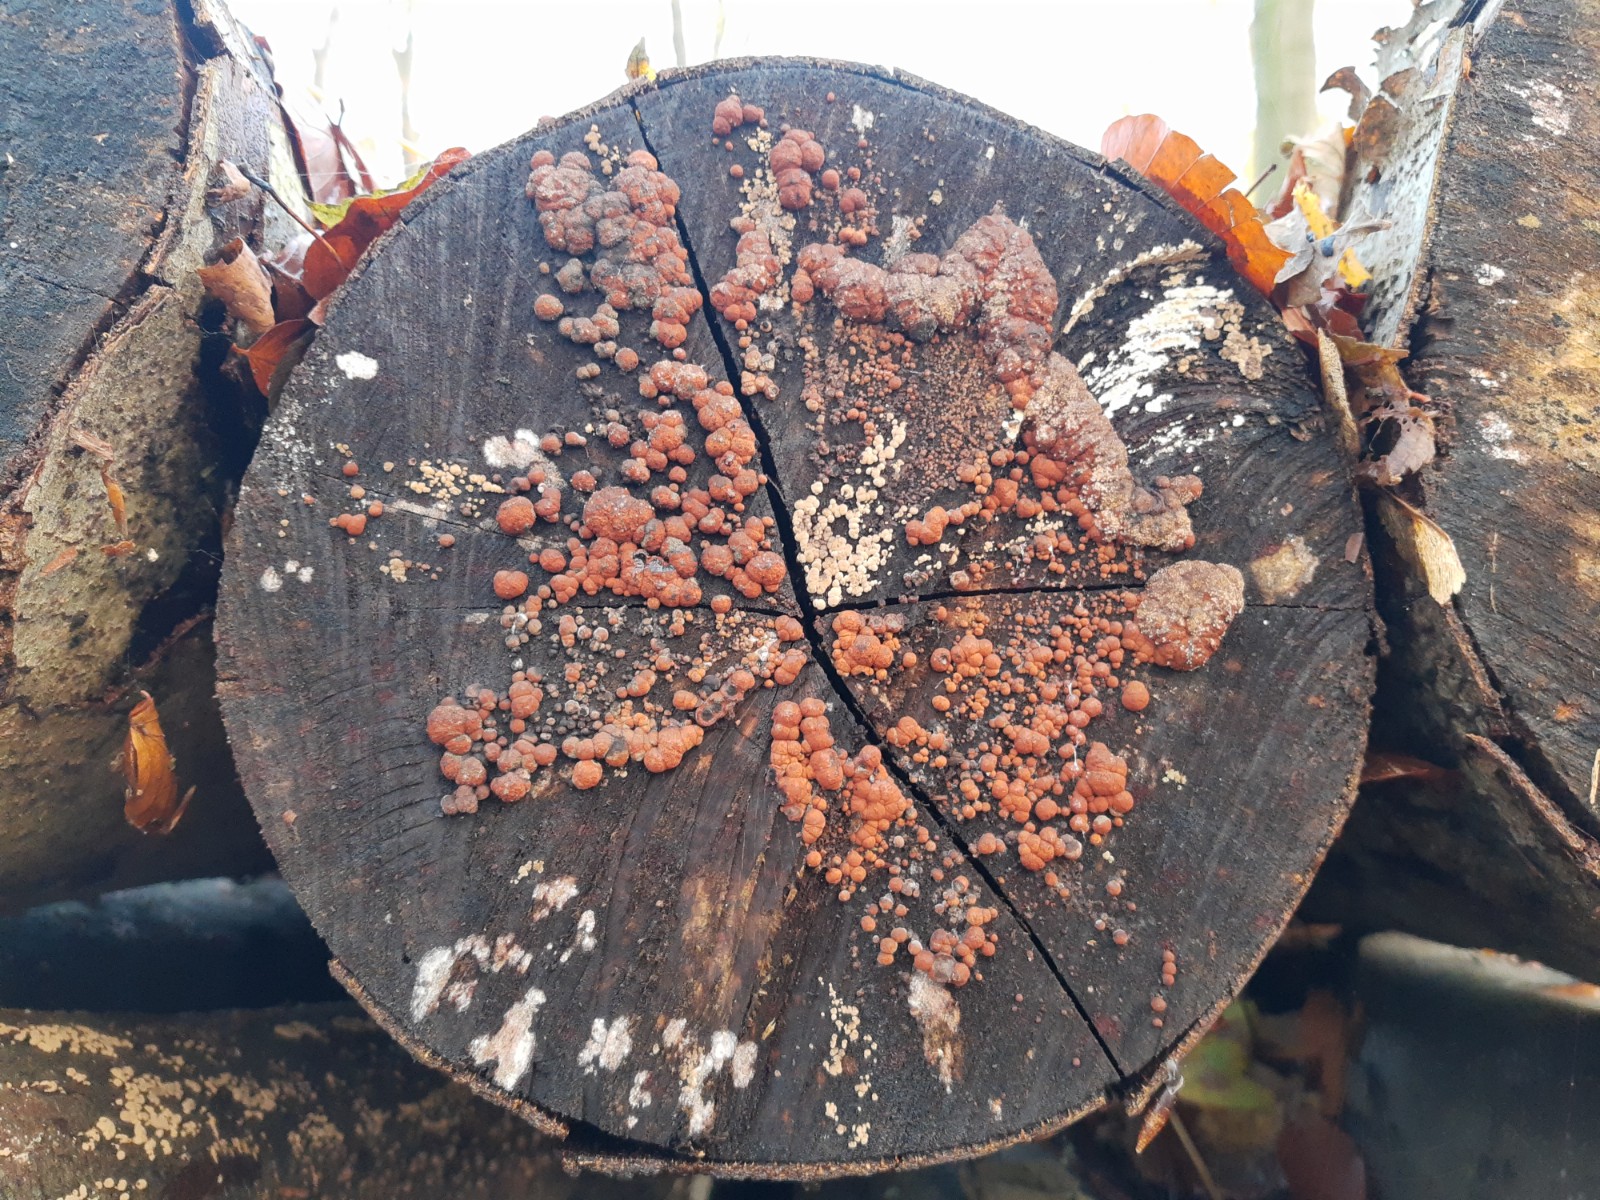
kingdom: Fungi
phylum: Ascomycota
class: Sordariomycetes
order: Xylariales
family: Hypoxylaceae
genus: Hypoxylon
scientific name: Hypoxylon fragiforme
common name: kuljordbær
